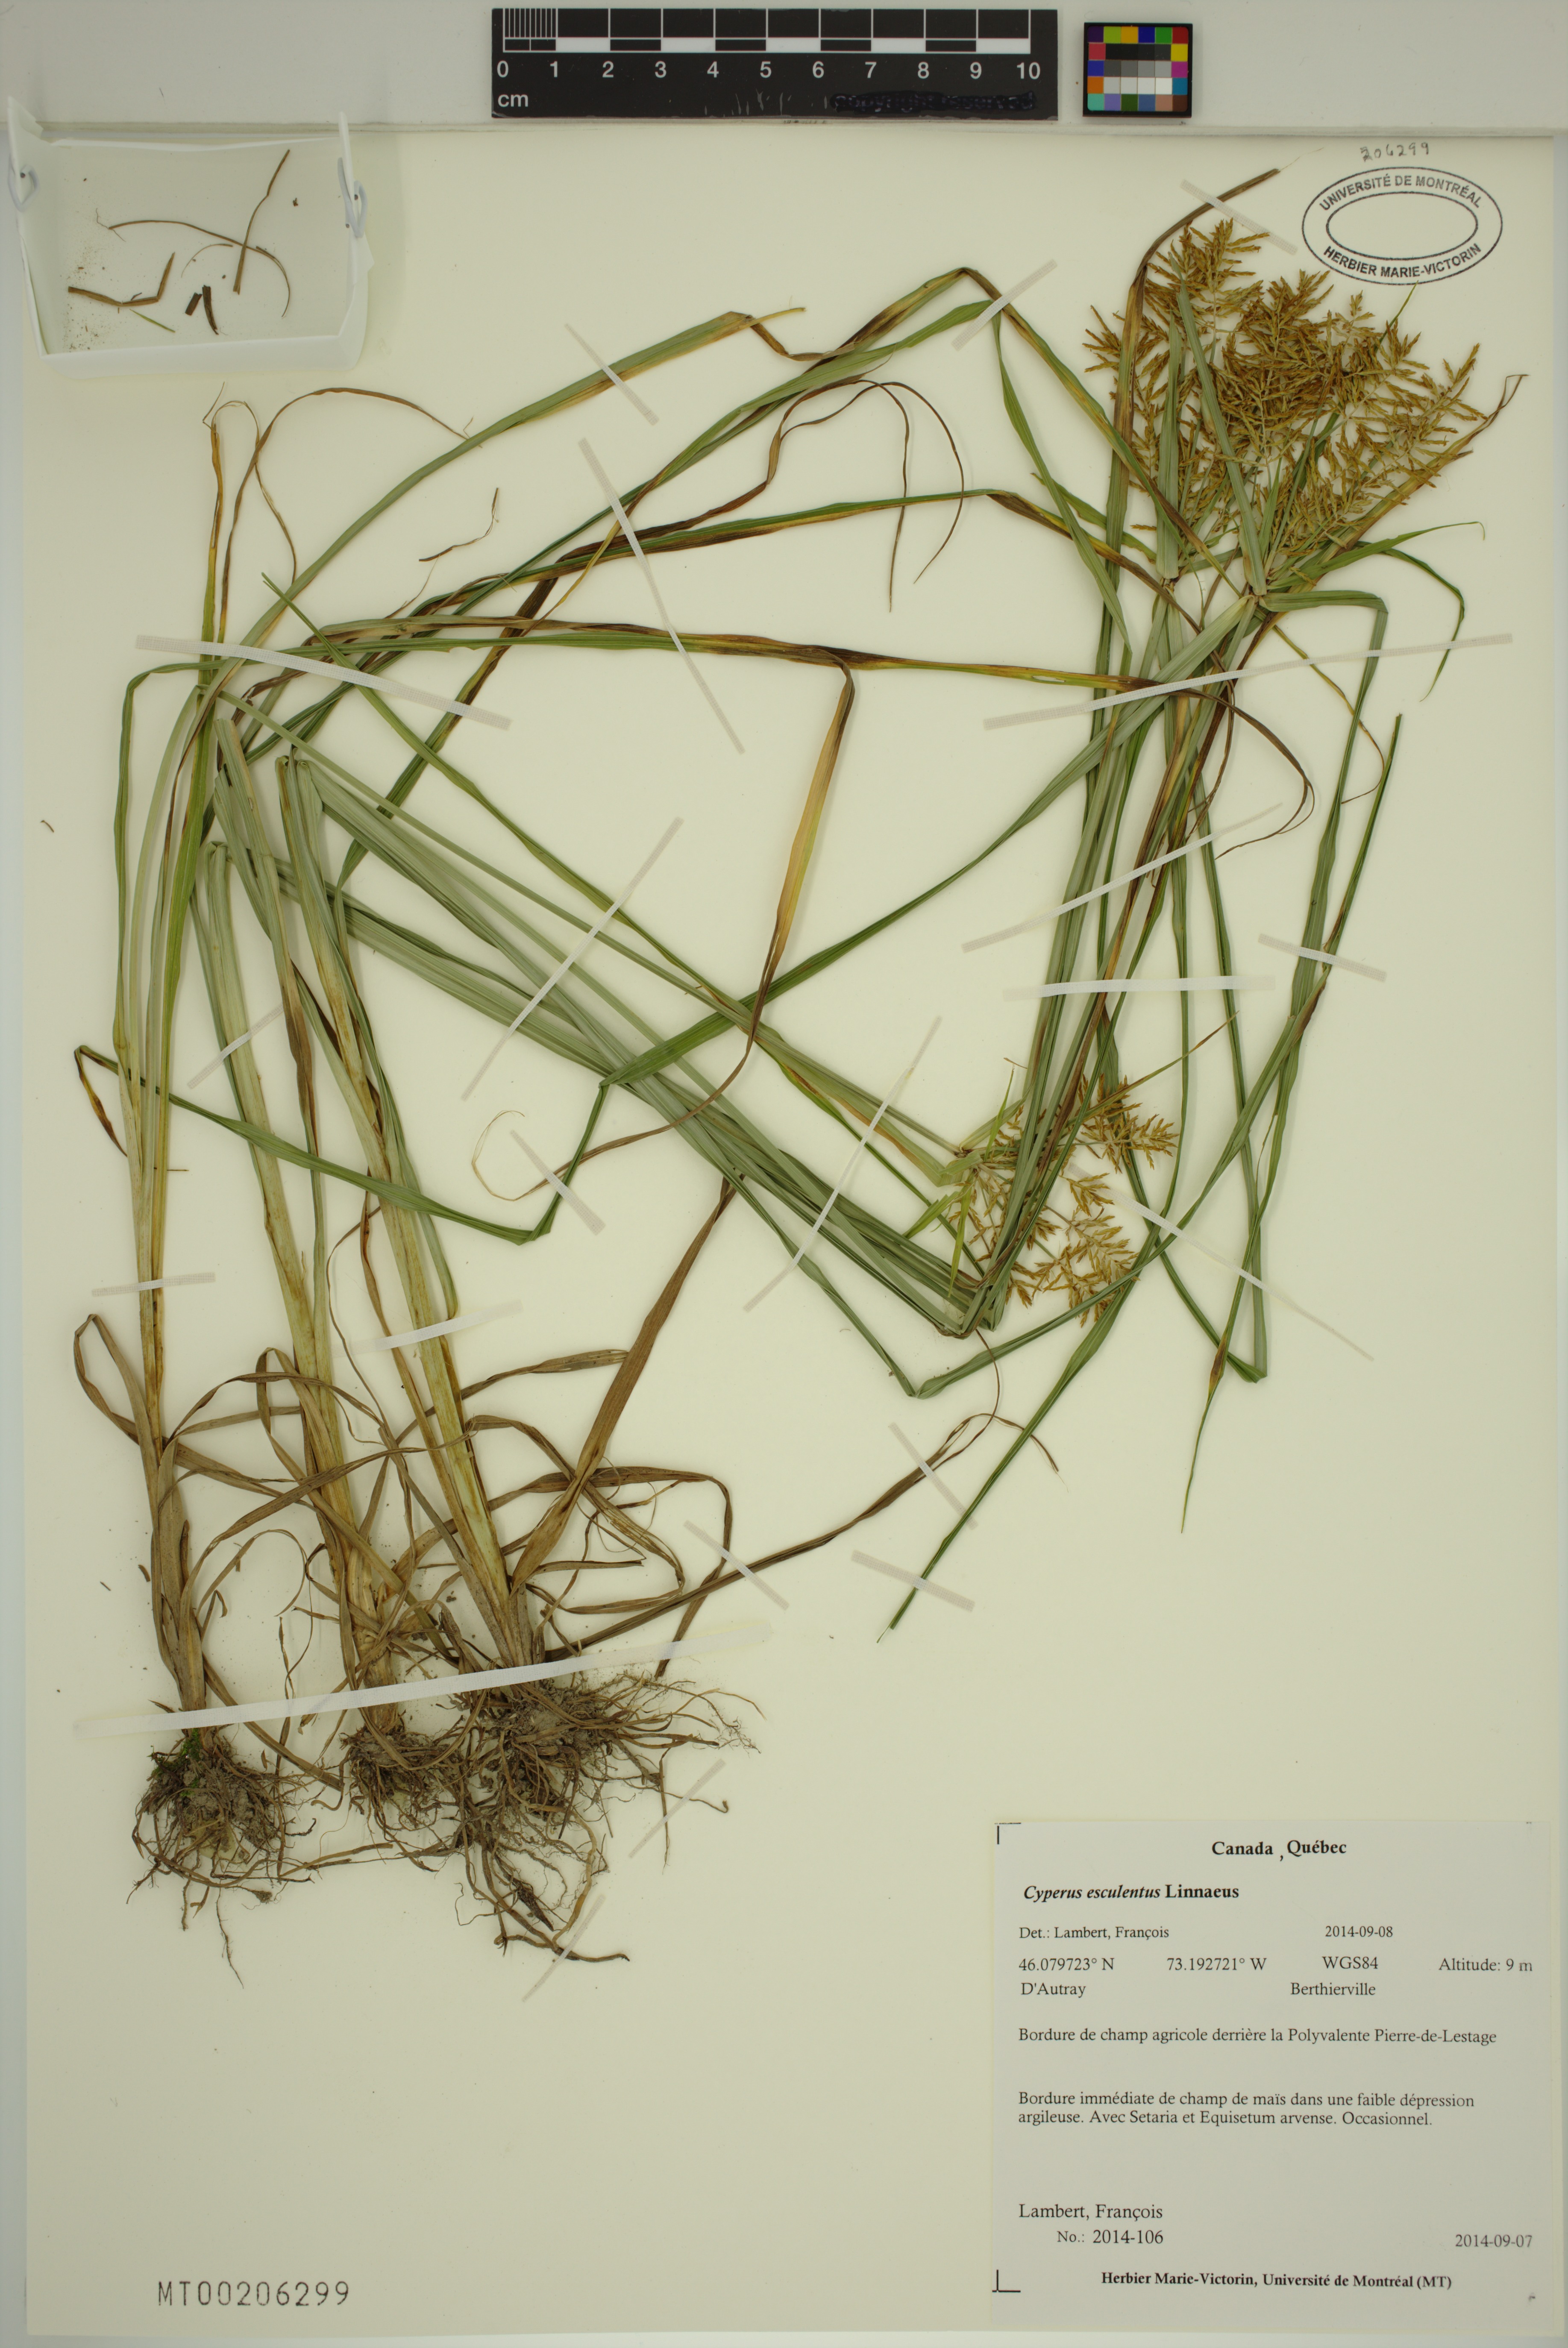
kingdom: Plantae
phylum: Tracheophyta
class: Liliopsida
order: Poales
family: Cyperaceae
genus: Cyperus
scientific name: Cyperus esculentus
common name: Yellow nutsedge
